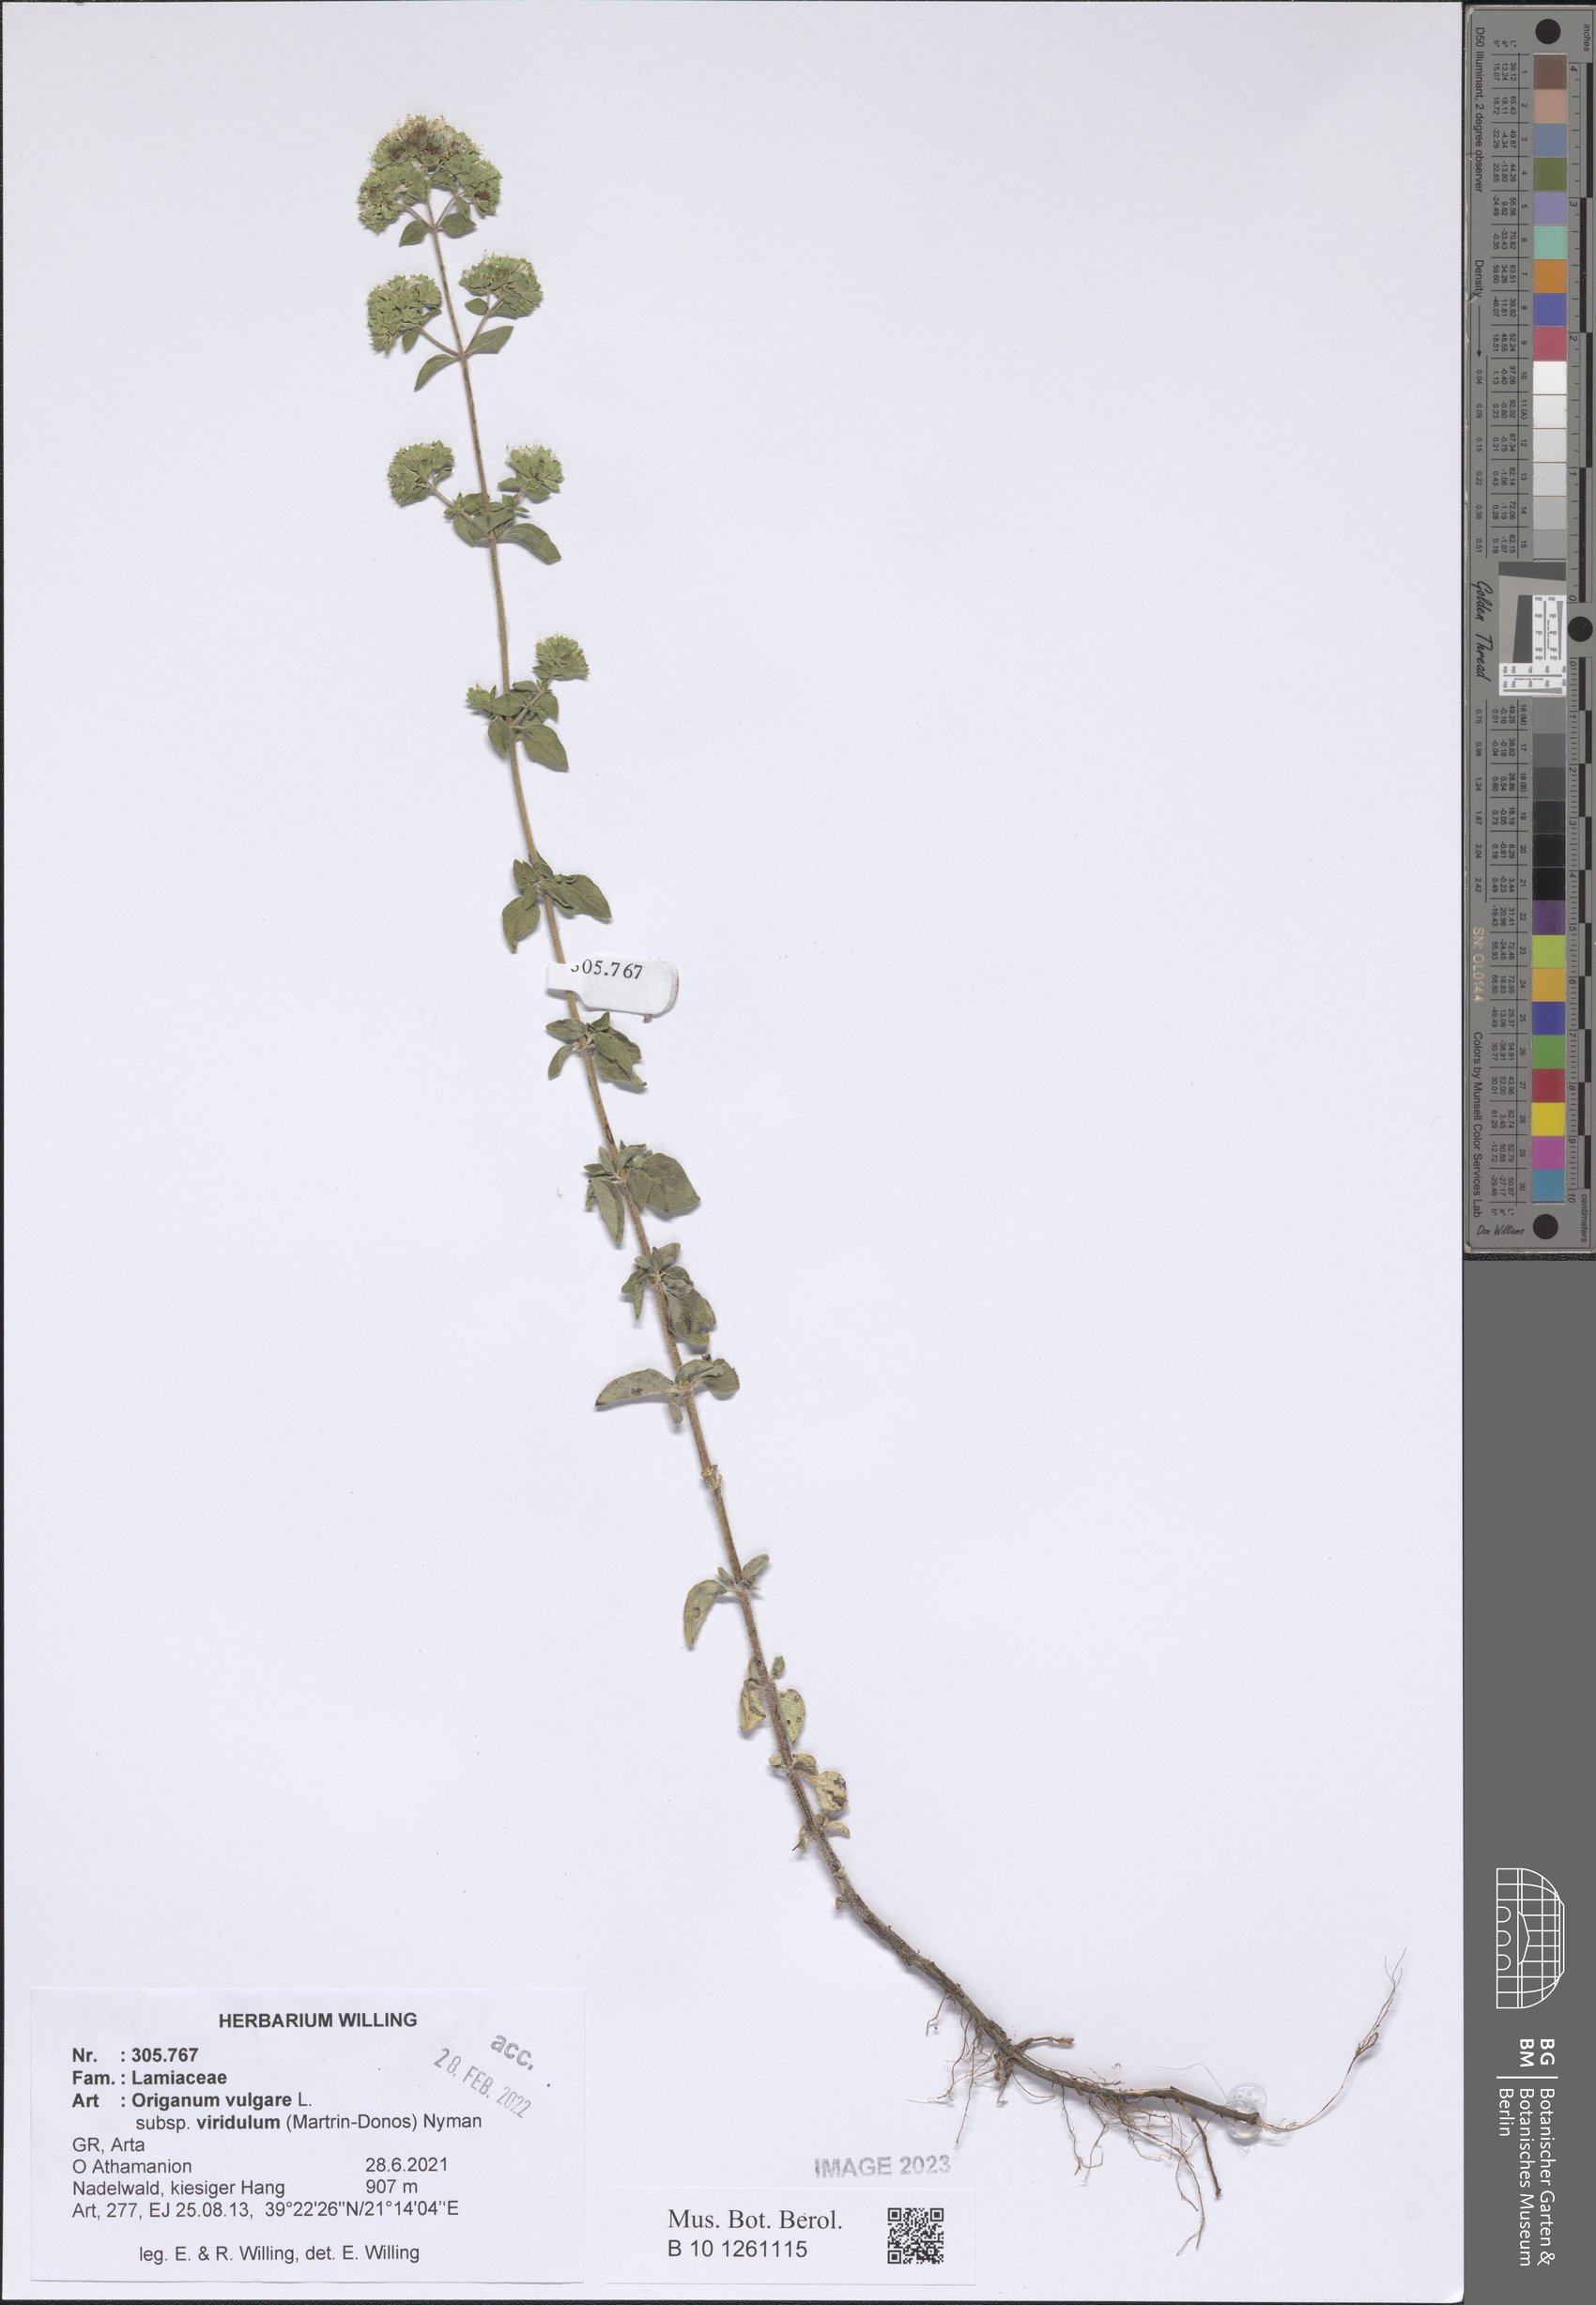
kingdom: Plantae
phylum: Tracheophyta
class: Magnoliopsida
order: Lamiales
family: Lamiaceae
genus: Origanum
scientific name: Origanum vulgare
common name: Wild marjoram
